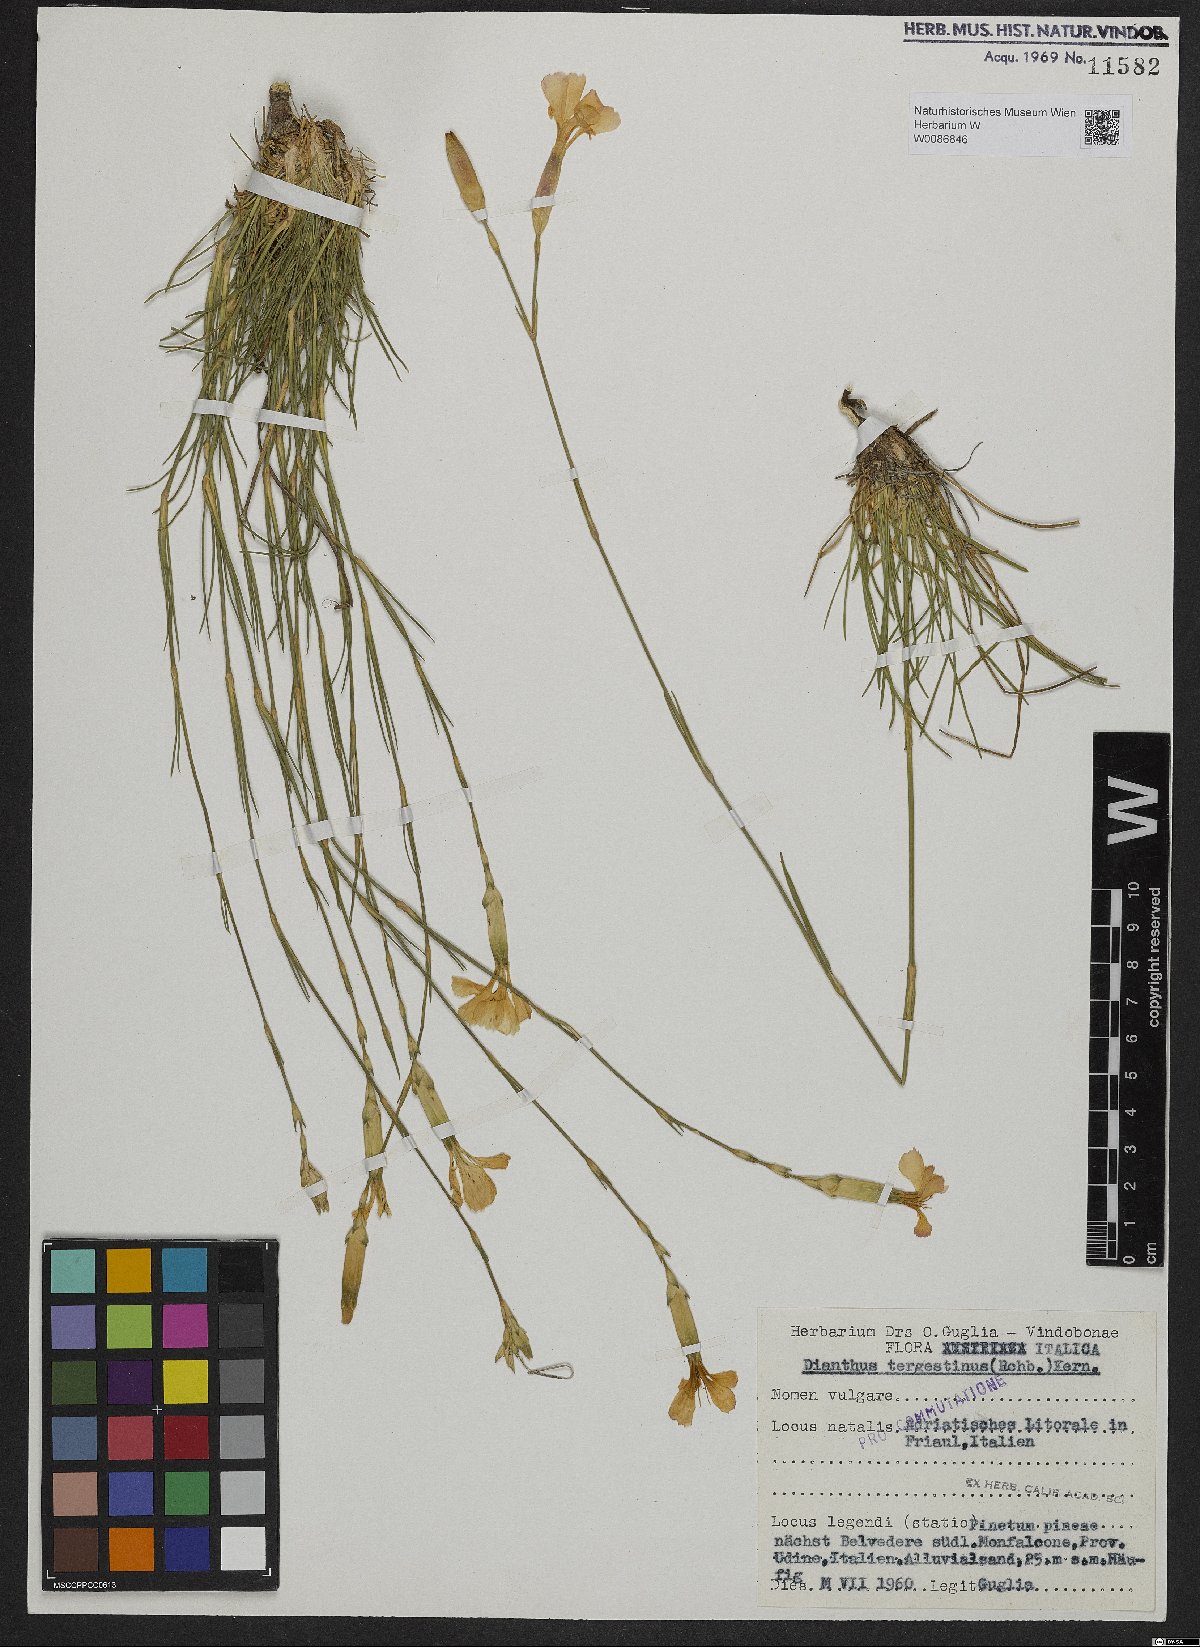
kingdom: Plantae
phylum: Tracheophyta
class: Magnoliopsida
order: Caryophyllales
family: Caryophyllaceae
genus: Dianthus
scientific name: Dianthus sylvestris
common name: Wood pink
